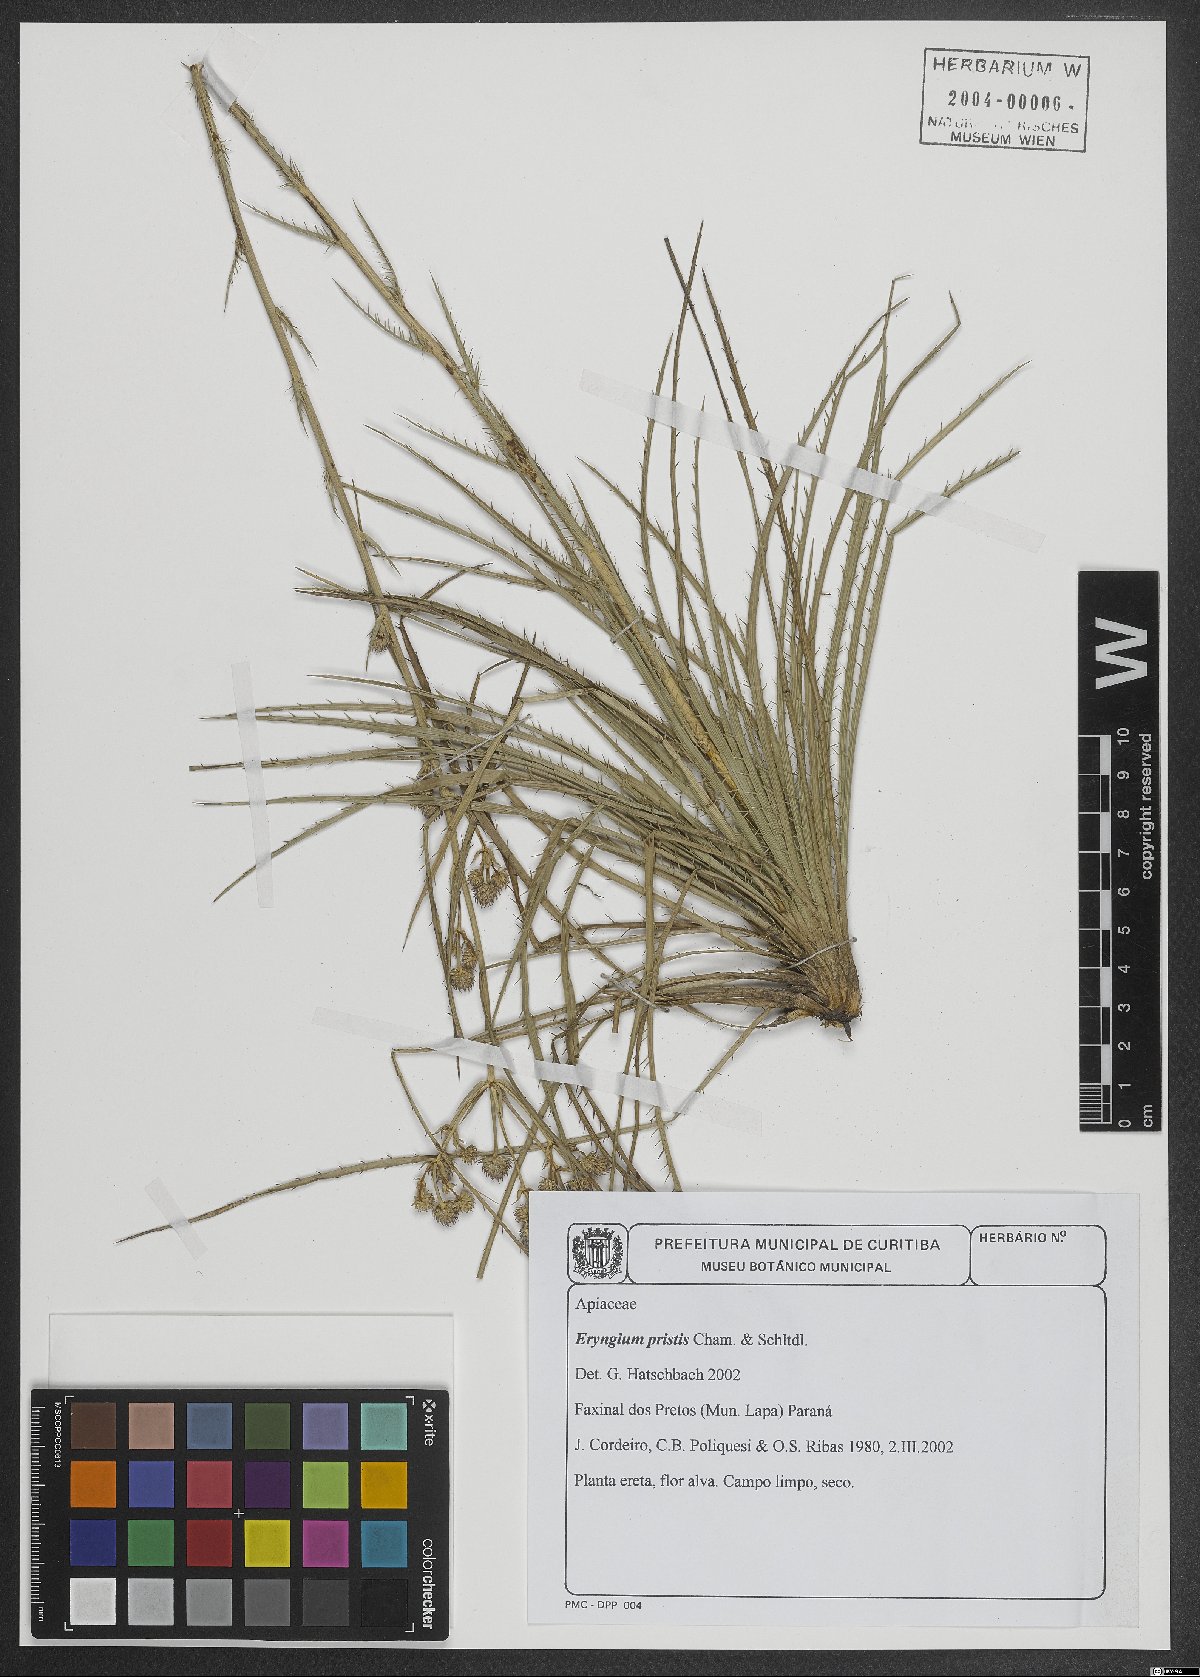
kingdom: Plantae
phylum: Tracheophyta
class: Magnoliopsida
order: Apiales
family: Apiaceae
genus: Eryngium
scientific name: Eryngium pristis
